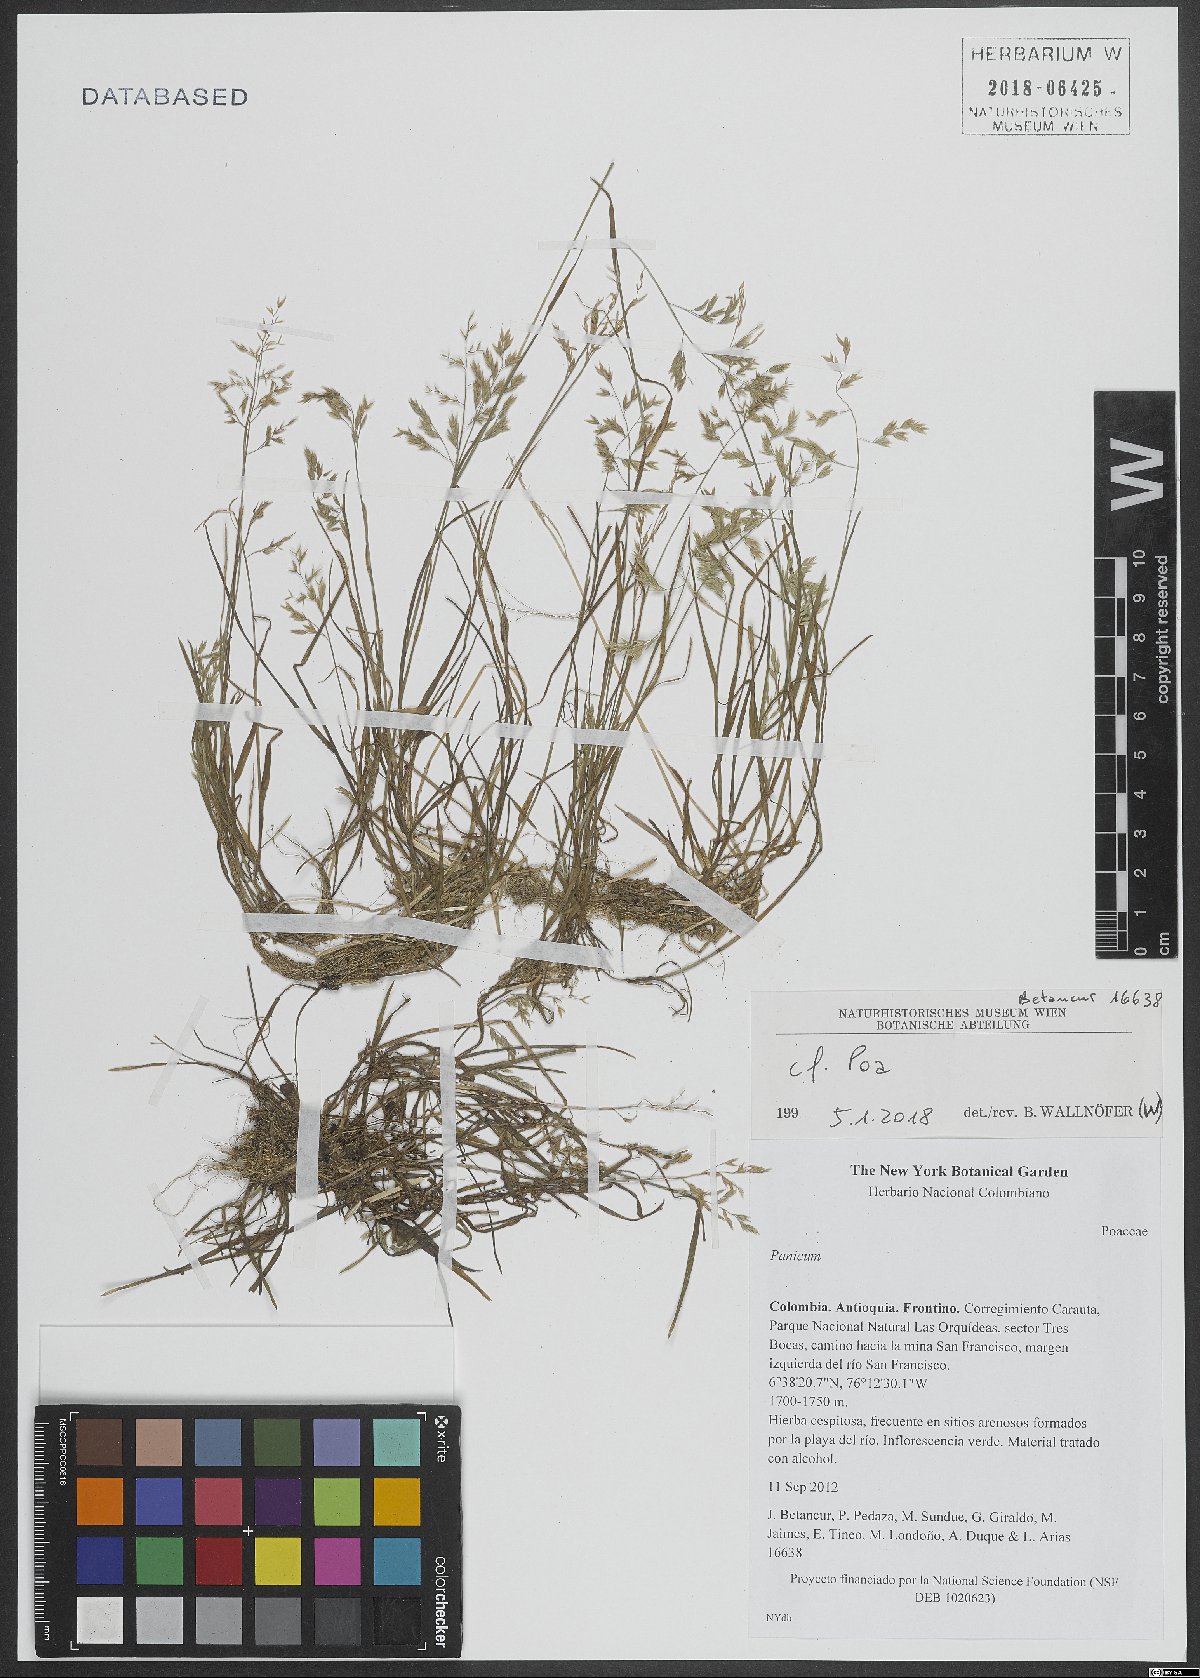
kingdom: Plantae
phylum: Tracheophyta
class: Liliopsida
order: Poales
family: Poaceae
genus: Poa
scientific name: Poa
